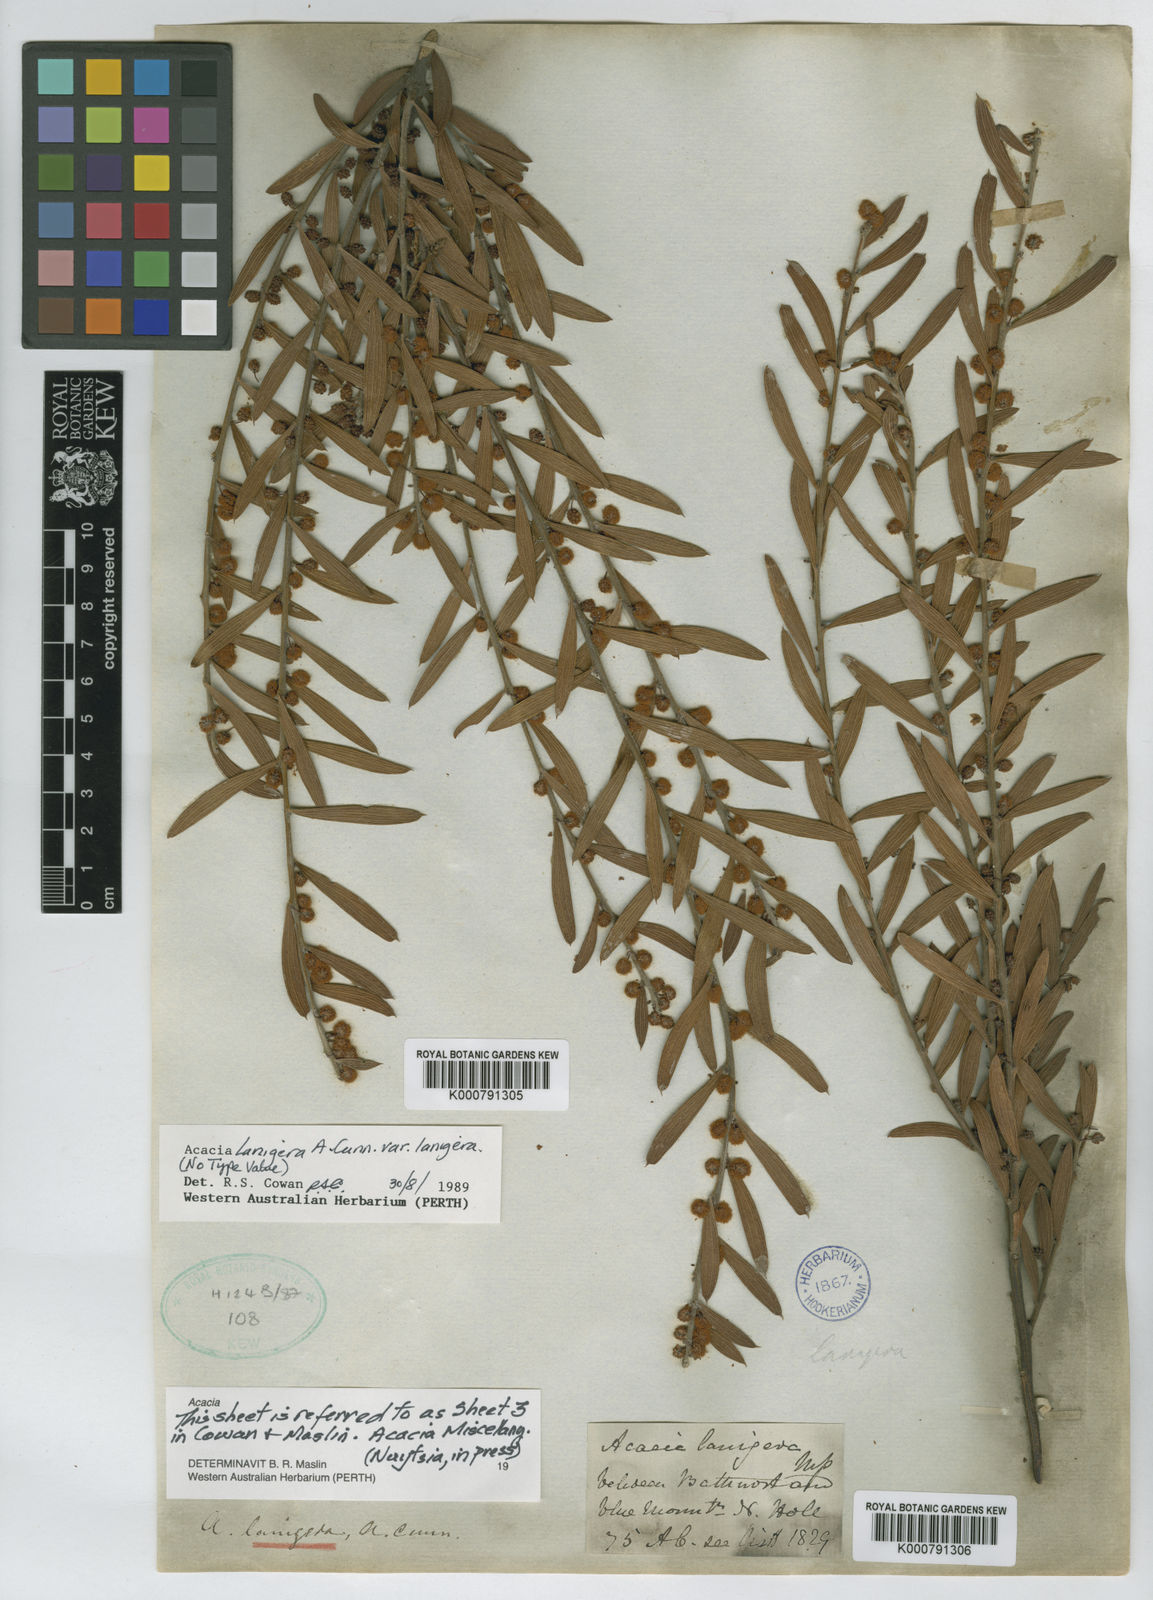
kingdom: Plantae
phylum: Tracheophyta
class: Magnoliopsida
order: Fabales
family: Fabaceae
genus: Acacia
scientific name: Acacia lanigera
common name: Hairy wattle
